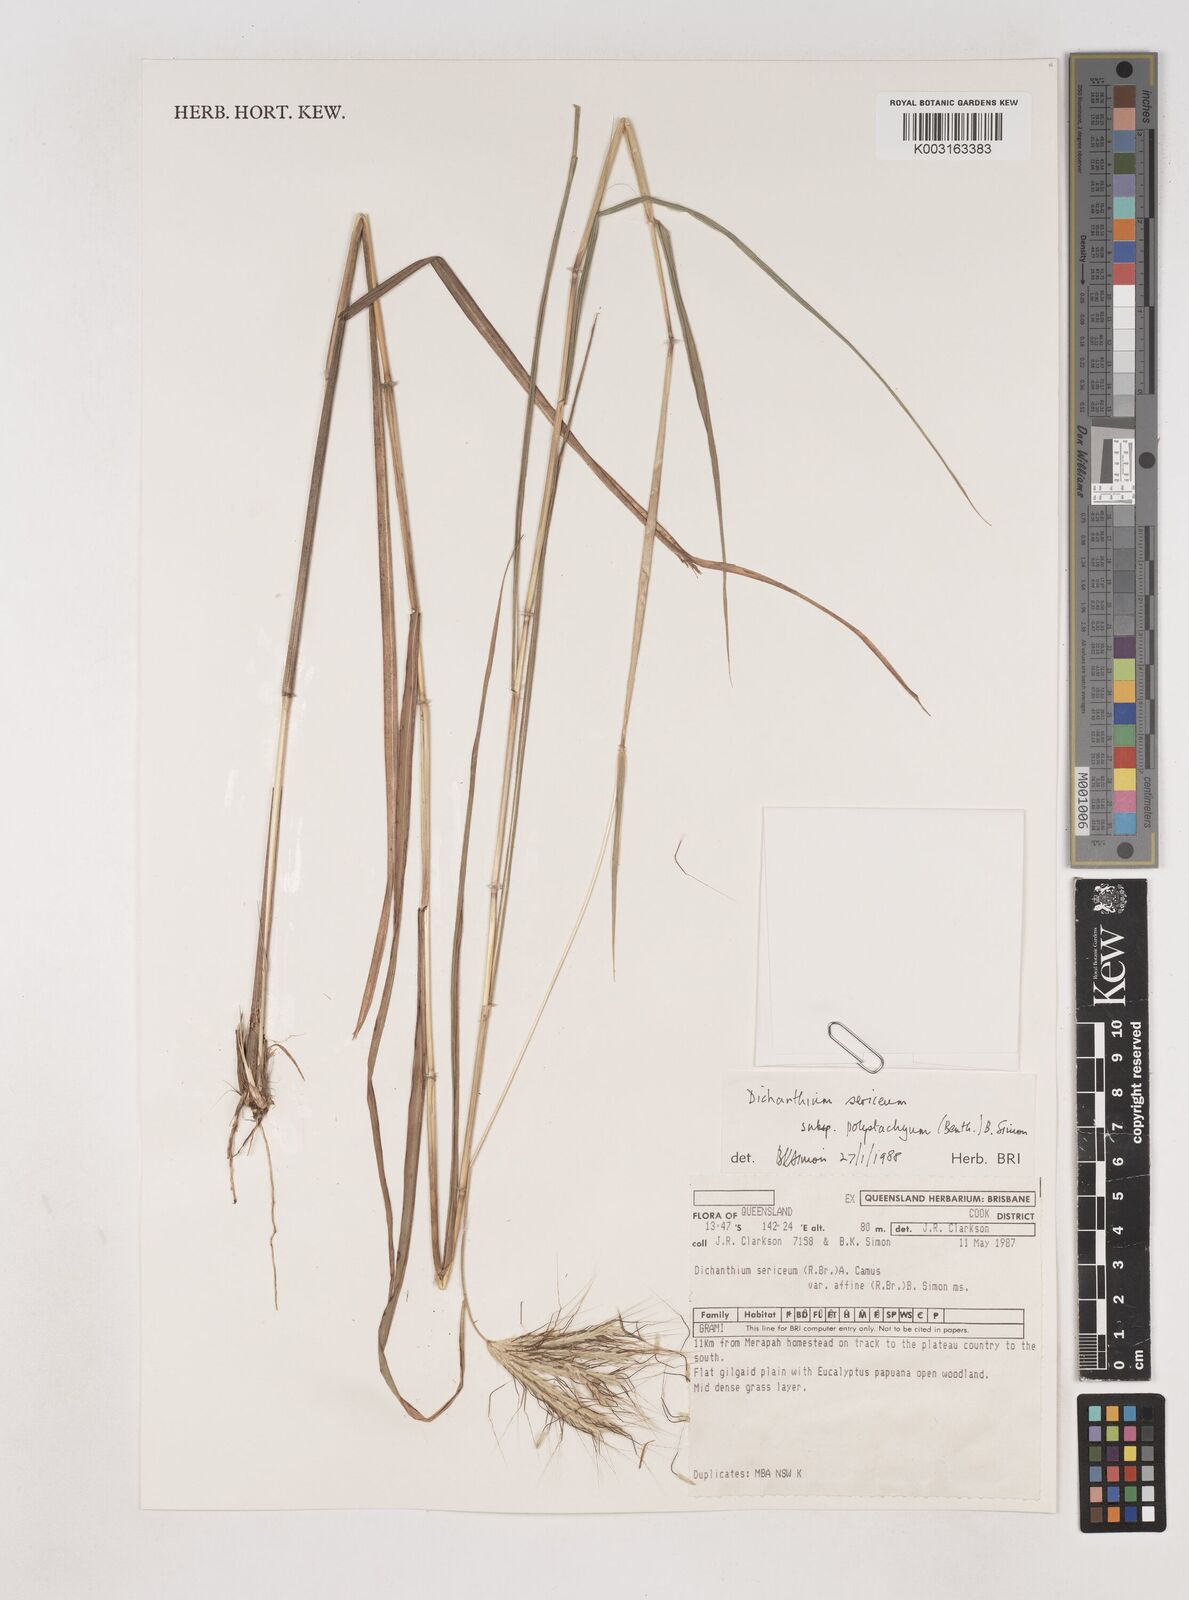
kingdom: Plantae
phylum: Tracheophyta
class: Liliopsida
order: Poales
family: Poaceae
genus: Dichanthium
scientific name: Dichanthium sericeum
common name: Silky bluestem
